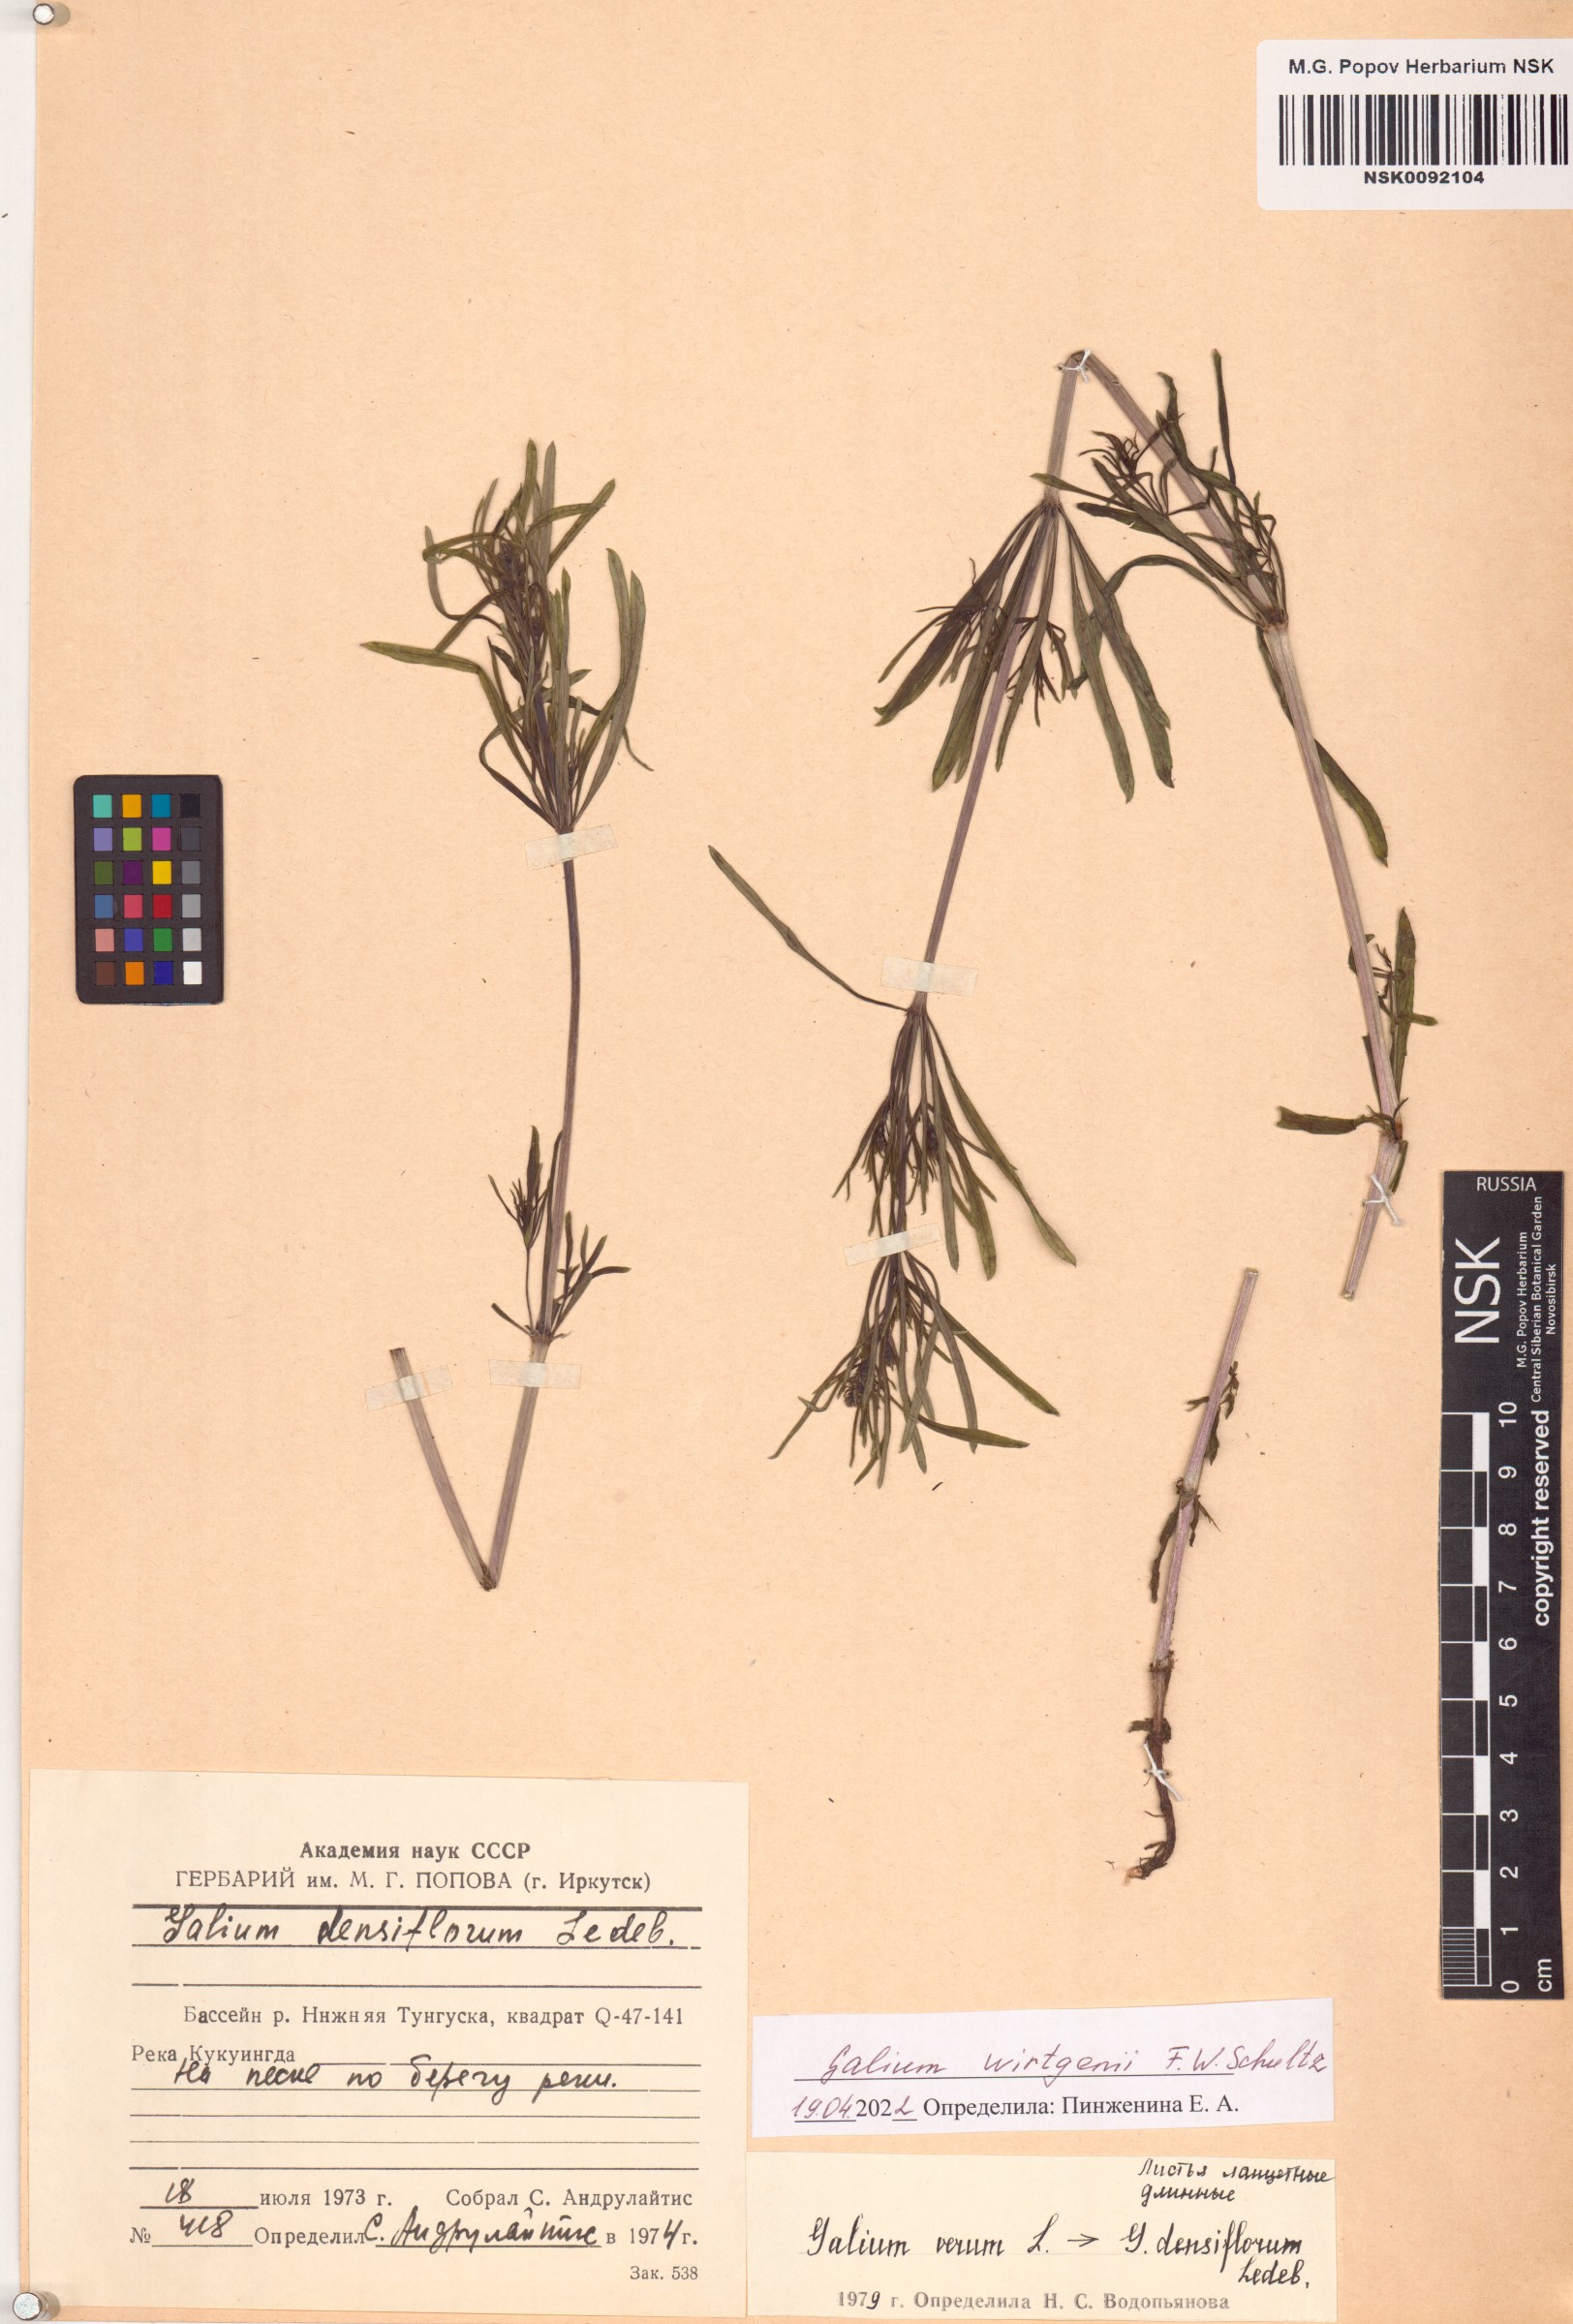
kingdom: Plantae
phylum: Tracheophyta
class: Magnoliopsida
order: Gentianales
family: Rubiaceae
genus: Galium
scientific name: Galium verum
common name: Lady's bedstraw
